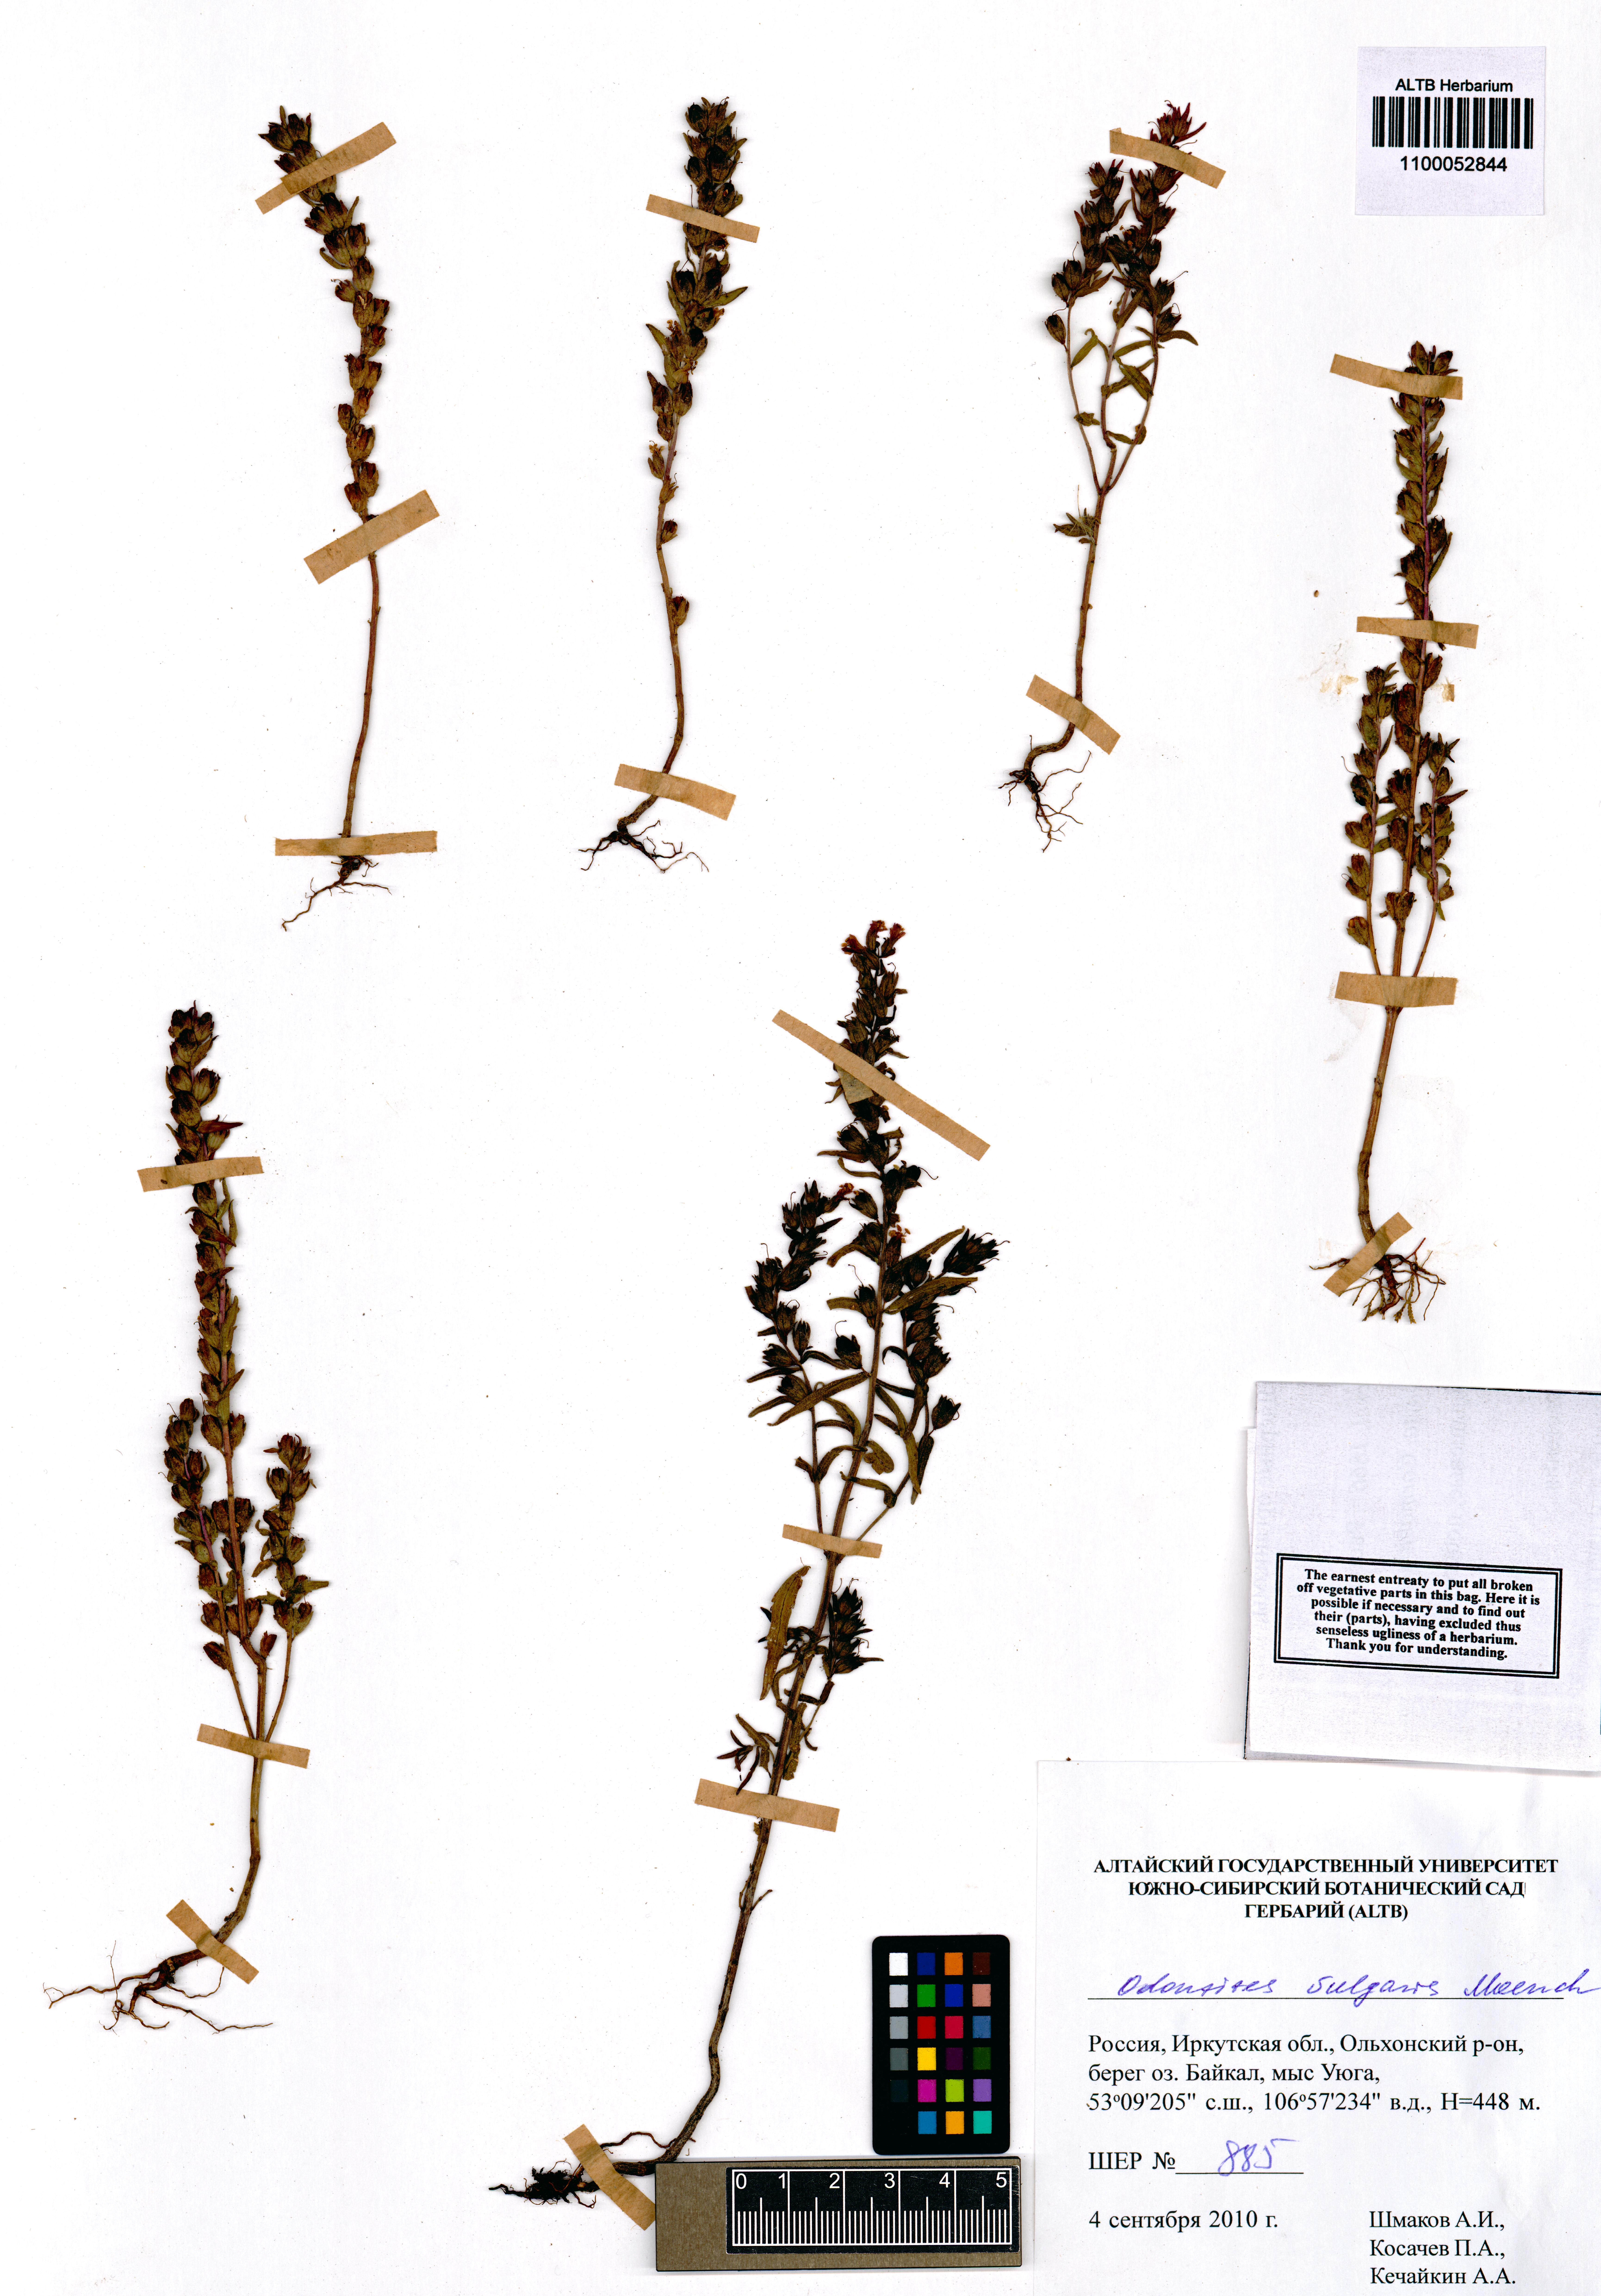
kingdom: Plantae
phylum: Tracheophyta
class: Magnoliopsida
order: Lamiales
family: Orobanchaceae
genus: Odontites
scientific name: Odontites vulgaris
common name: Broomrape
